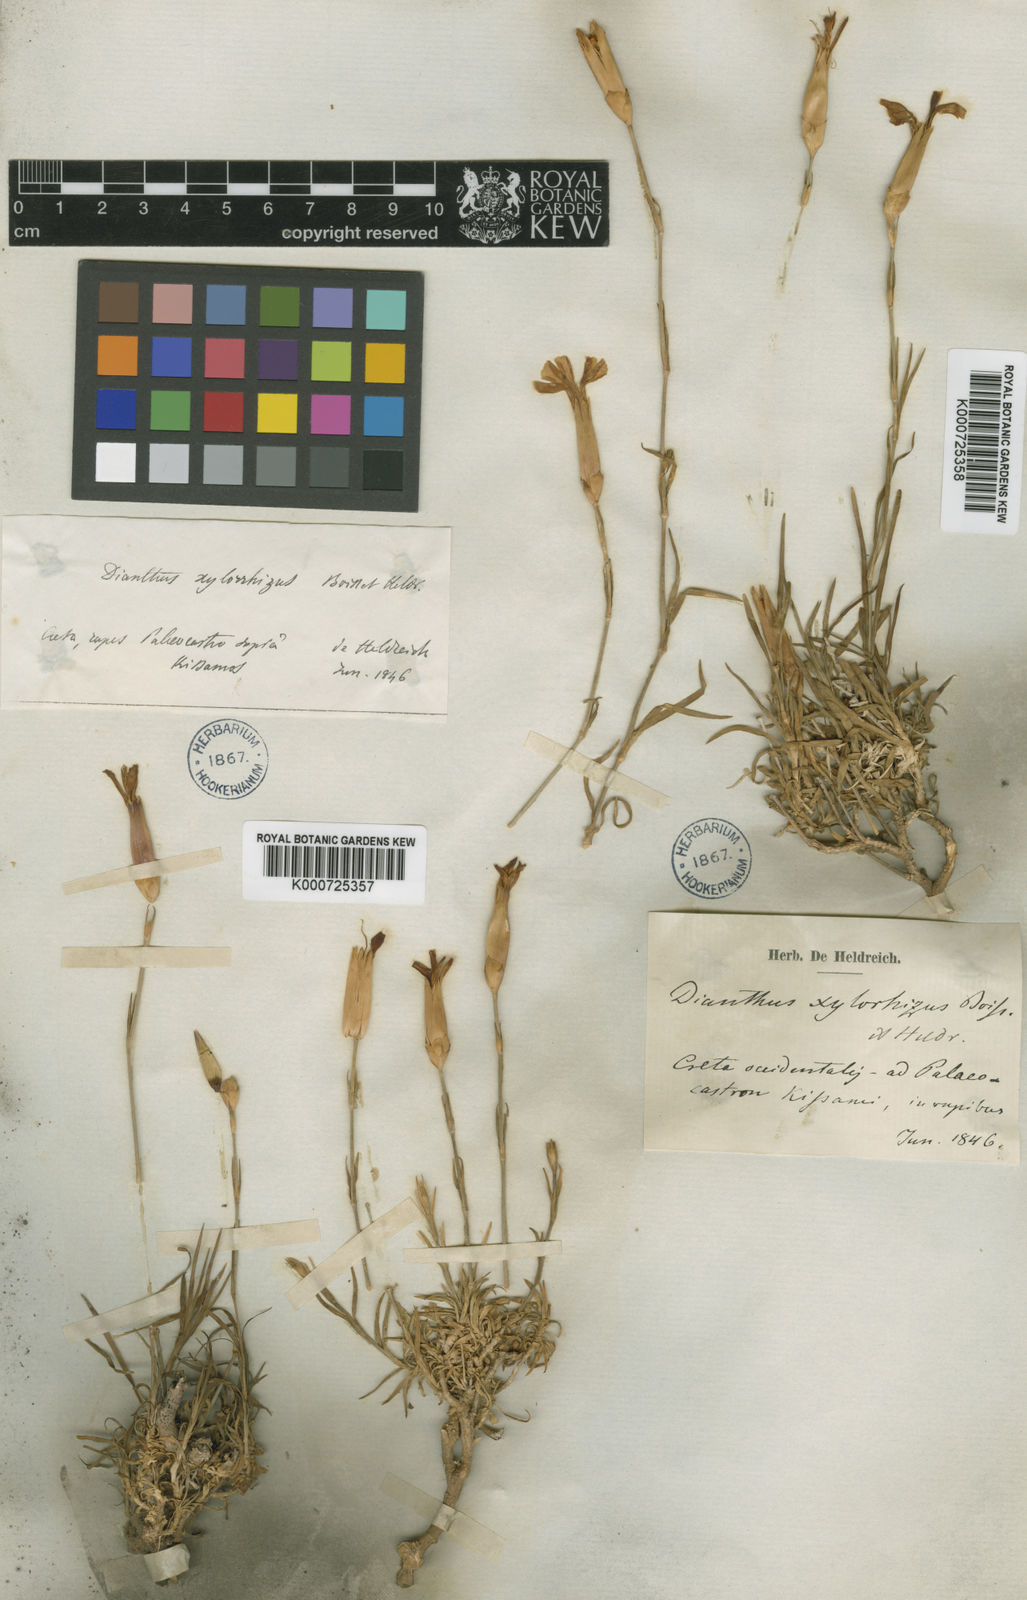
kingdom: Plantae
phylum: Tracheophyta
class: Magnoliopsida
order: Caryophyllales
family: Caryophyllaceae
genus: Dianthus
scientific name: Dianthus xylorrhizus
